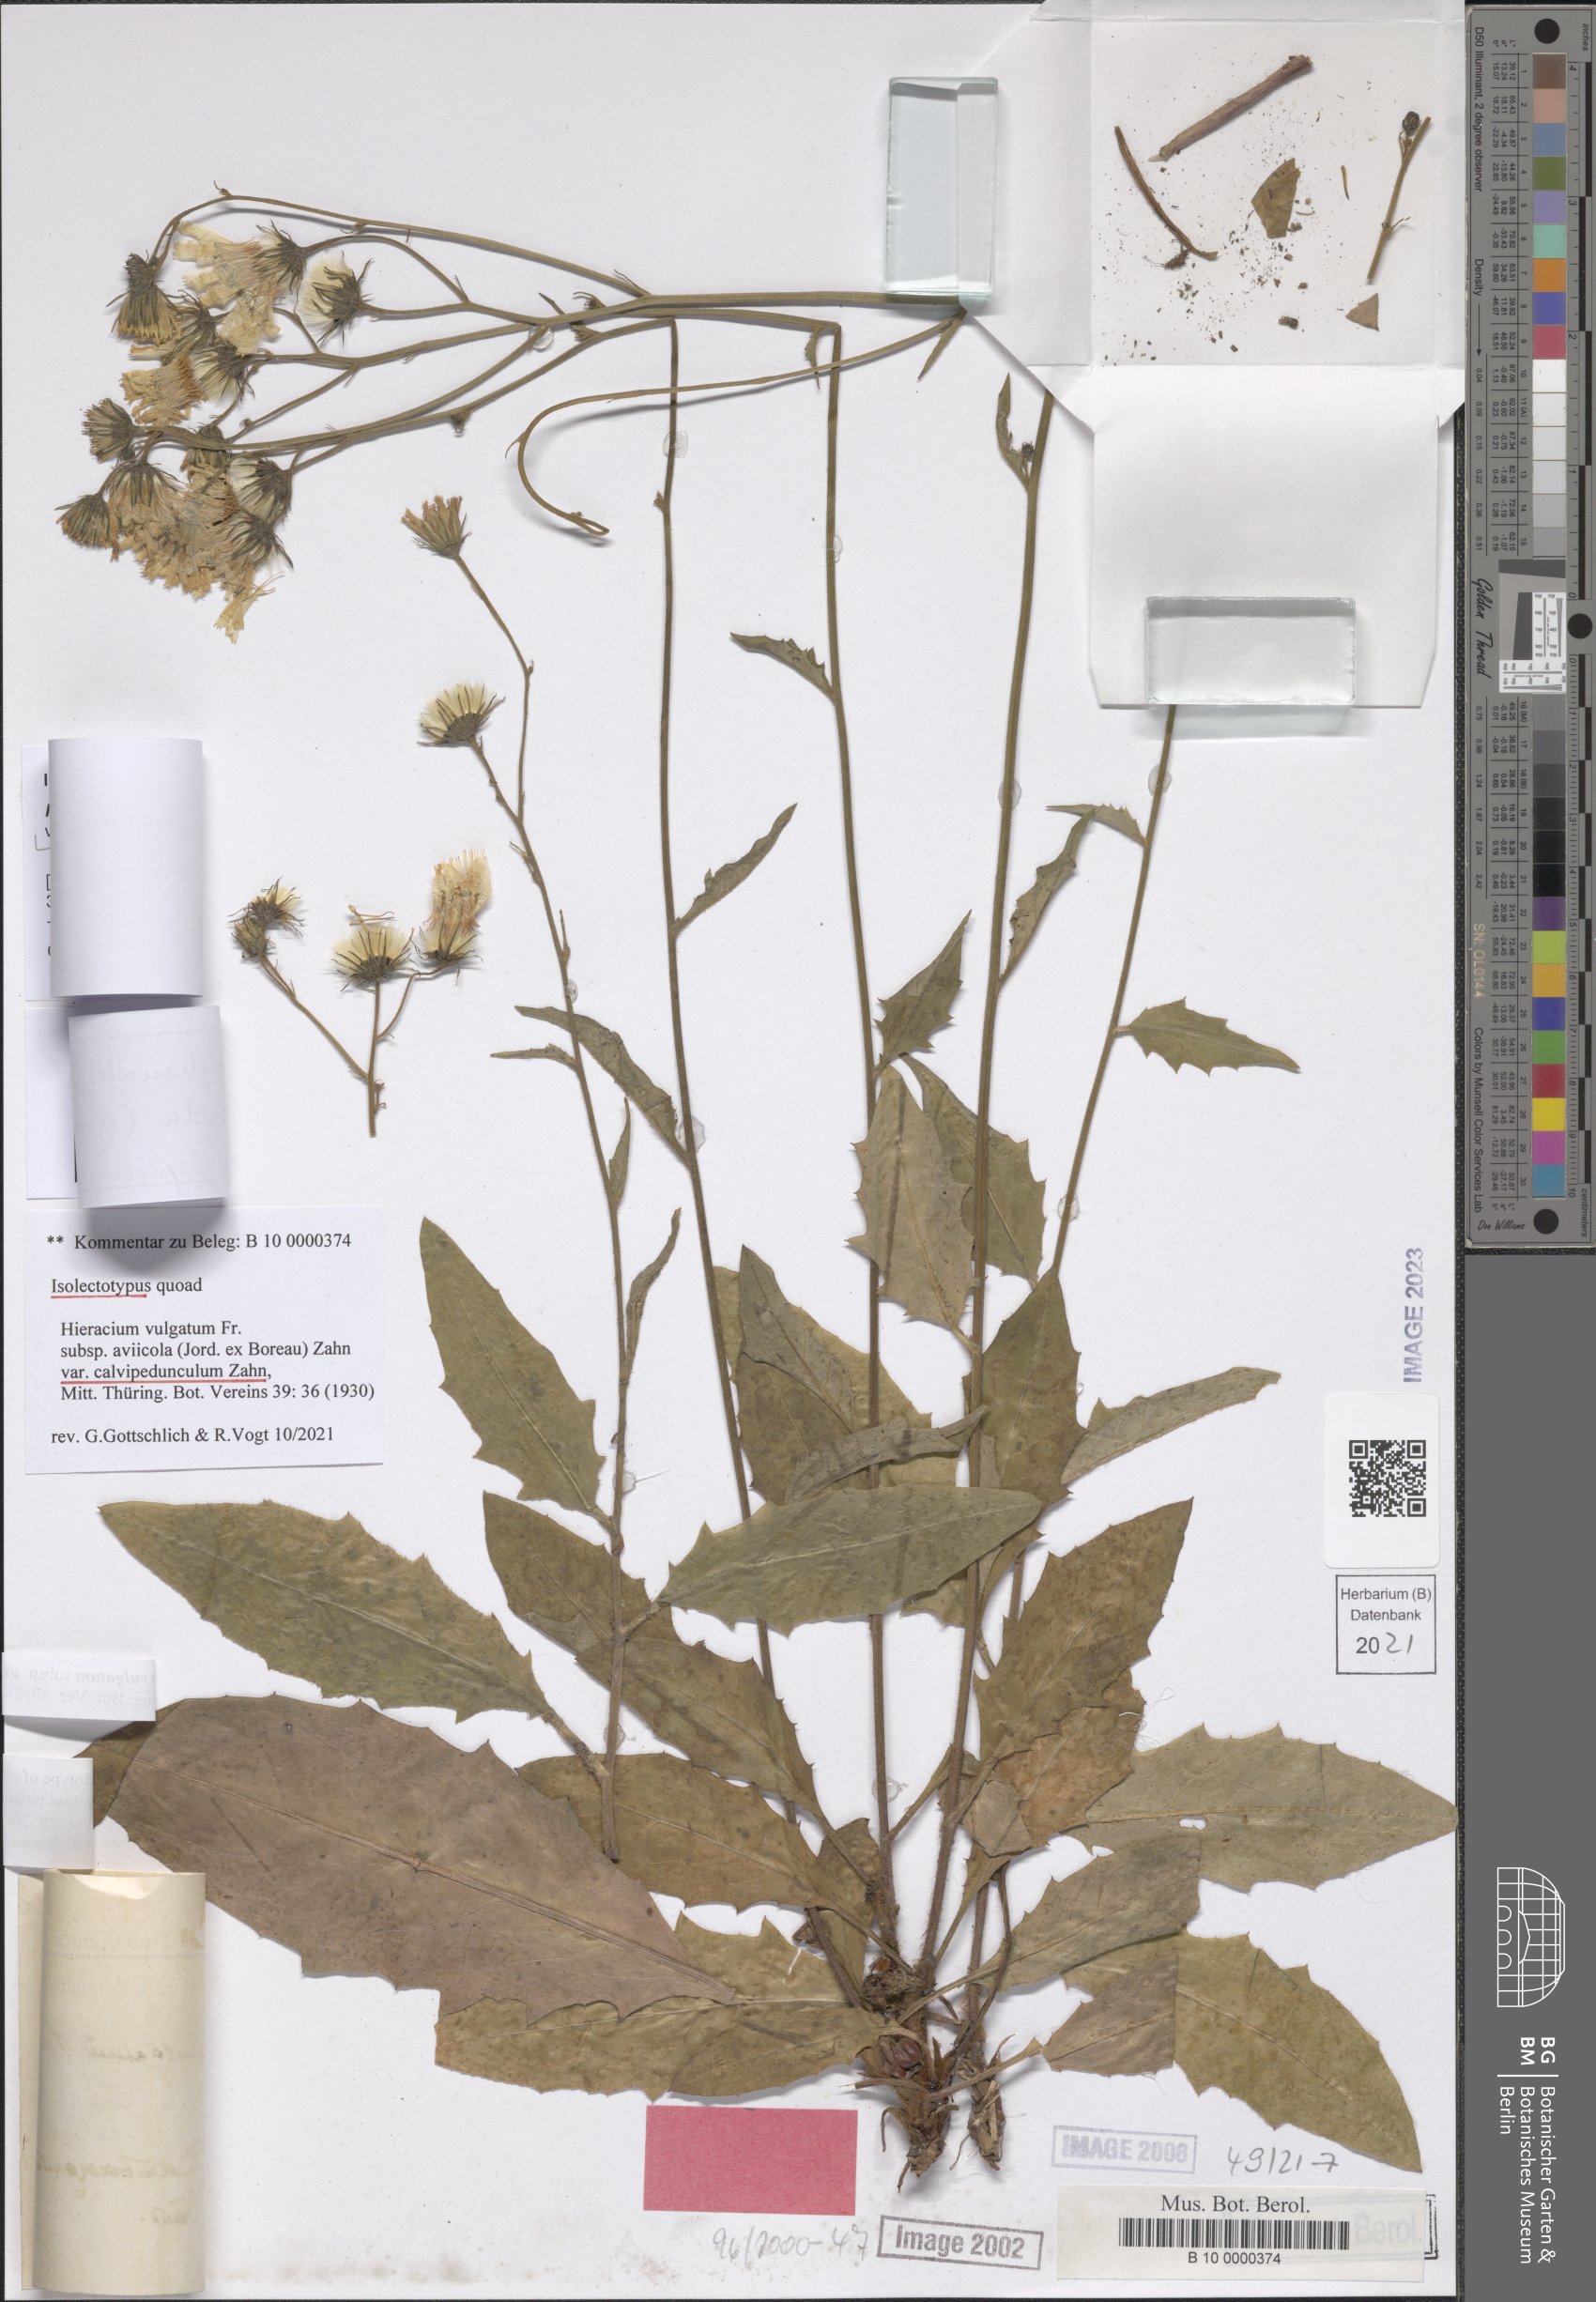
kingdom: Plantae
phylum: Tracheophyta
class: Magnoliopsida
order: Asterales
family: Asteraceae
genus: Hieracium
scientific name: Hieracium vulgatum
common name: Common hawkweed
